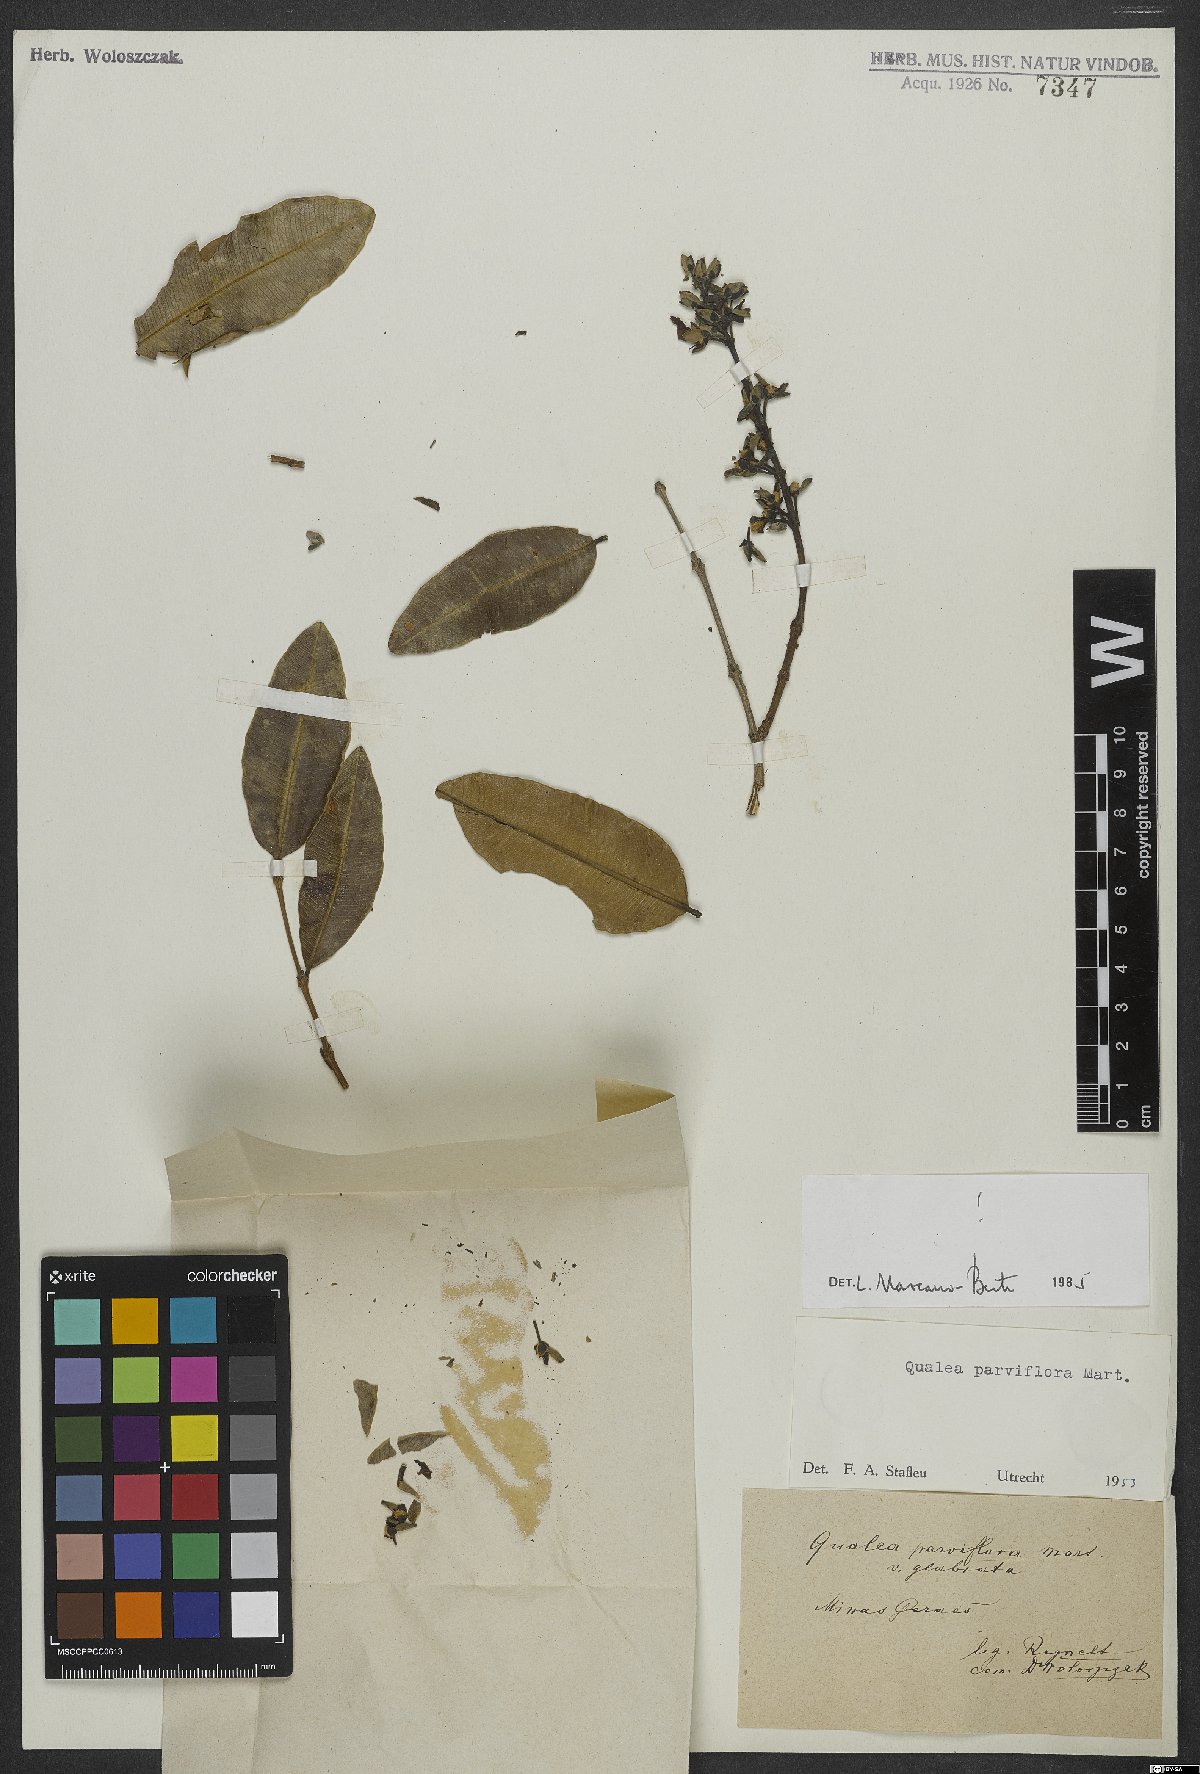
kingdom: Plantae
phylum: Tracheophyta
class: Magnoliopsida
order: Myrtales
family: Vochysiaceae
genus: Qualea
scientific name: Qualea parviflora
